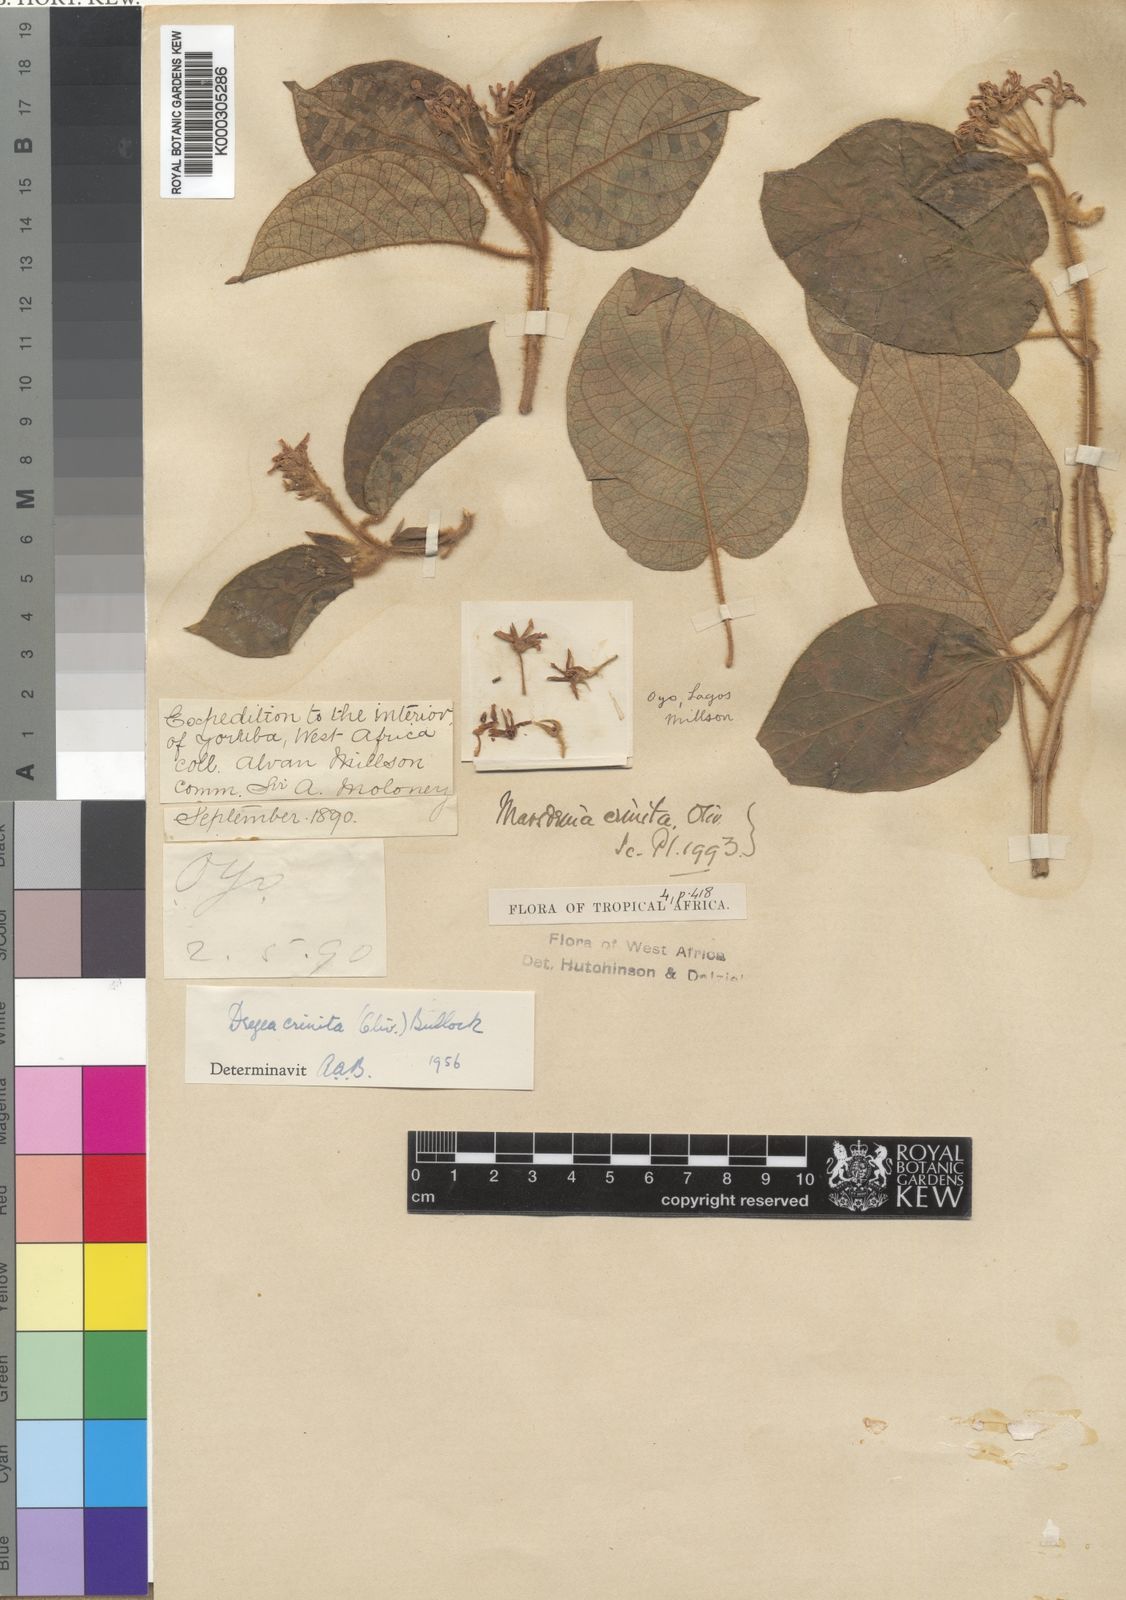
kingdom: Plantae
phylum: Tracheophyta
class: Magnoliopsida
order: Gentianales
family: Apocynaceae
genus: Stephanotis
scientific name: Stephanotis crinita
